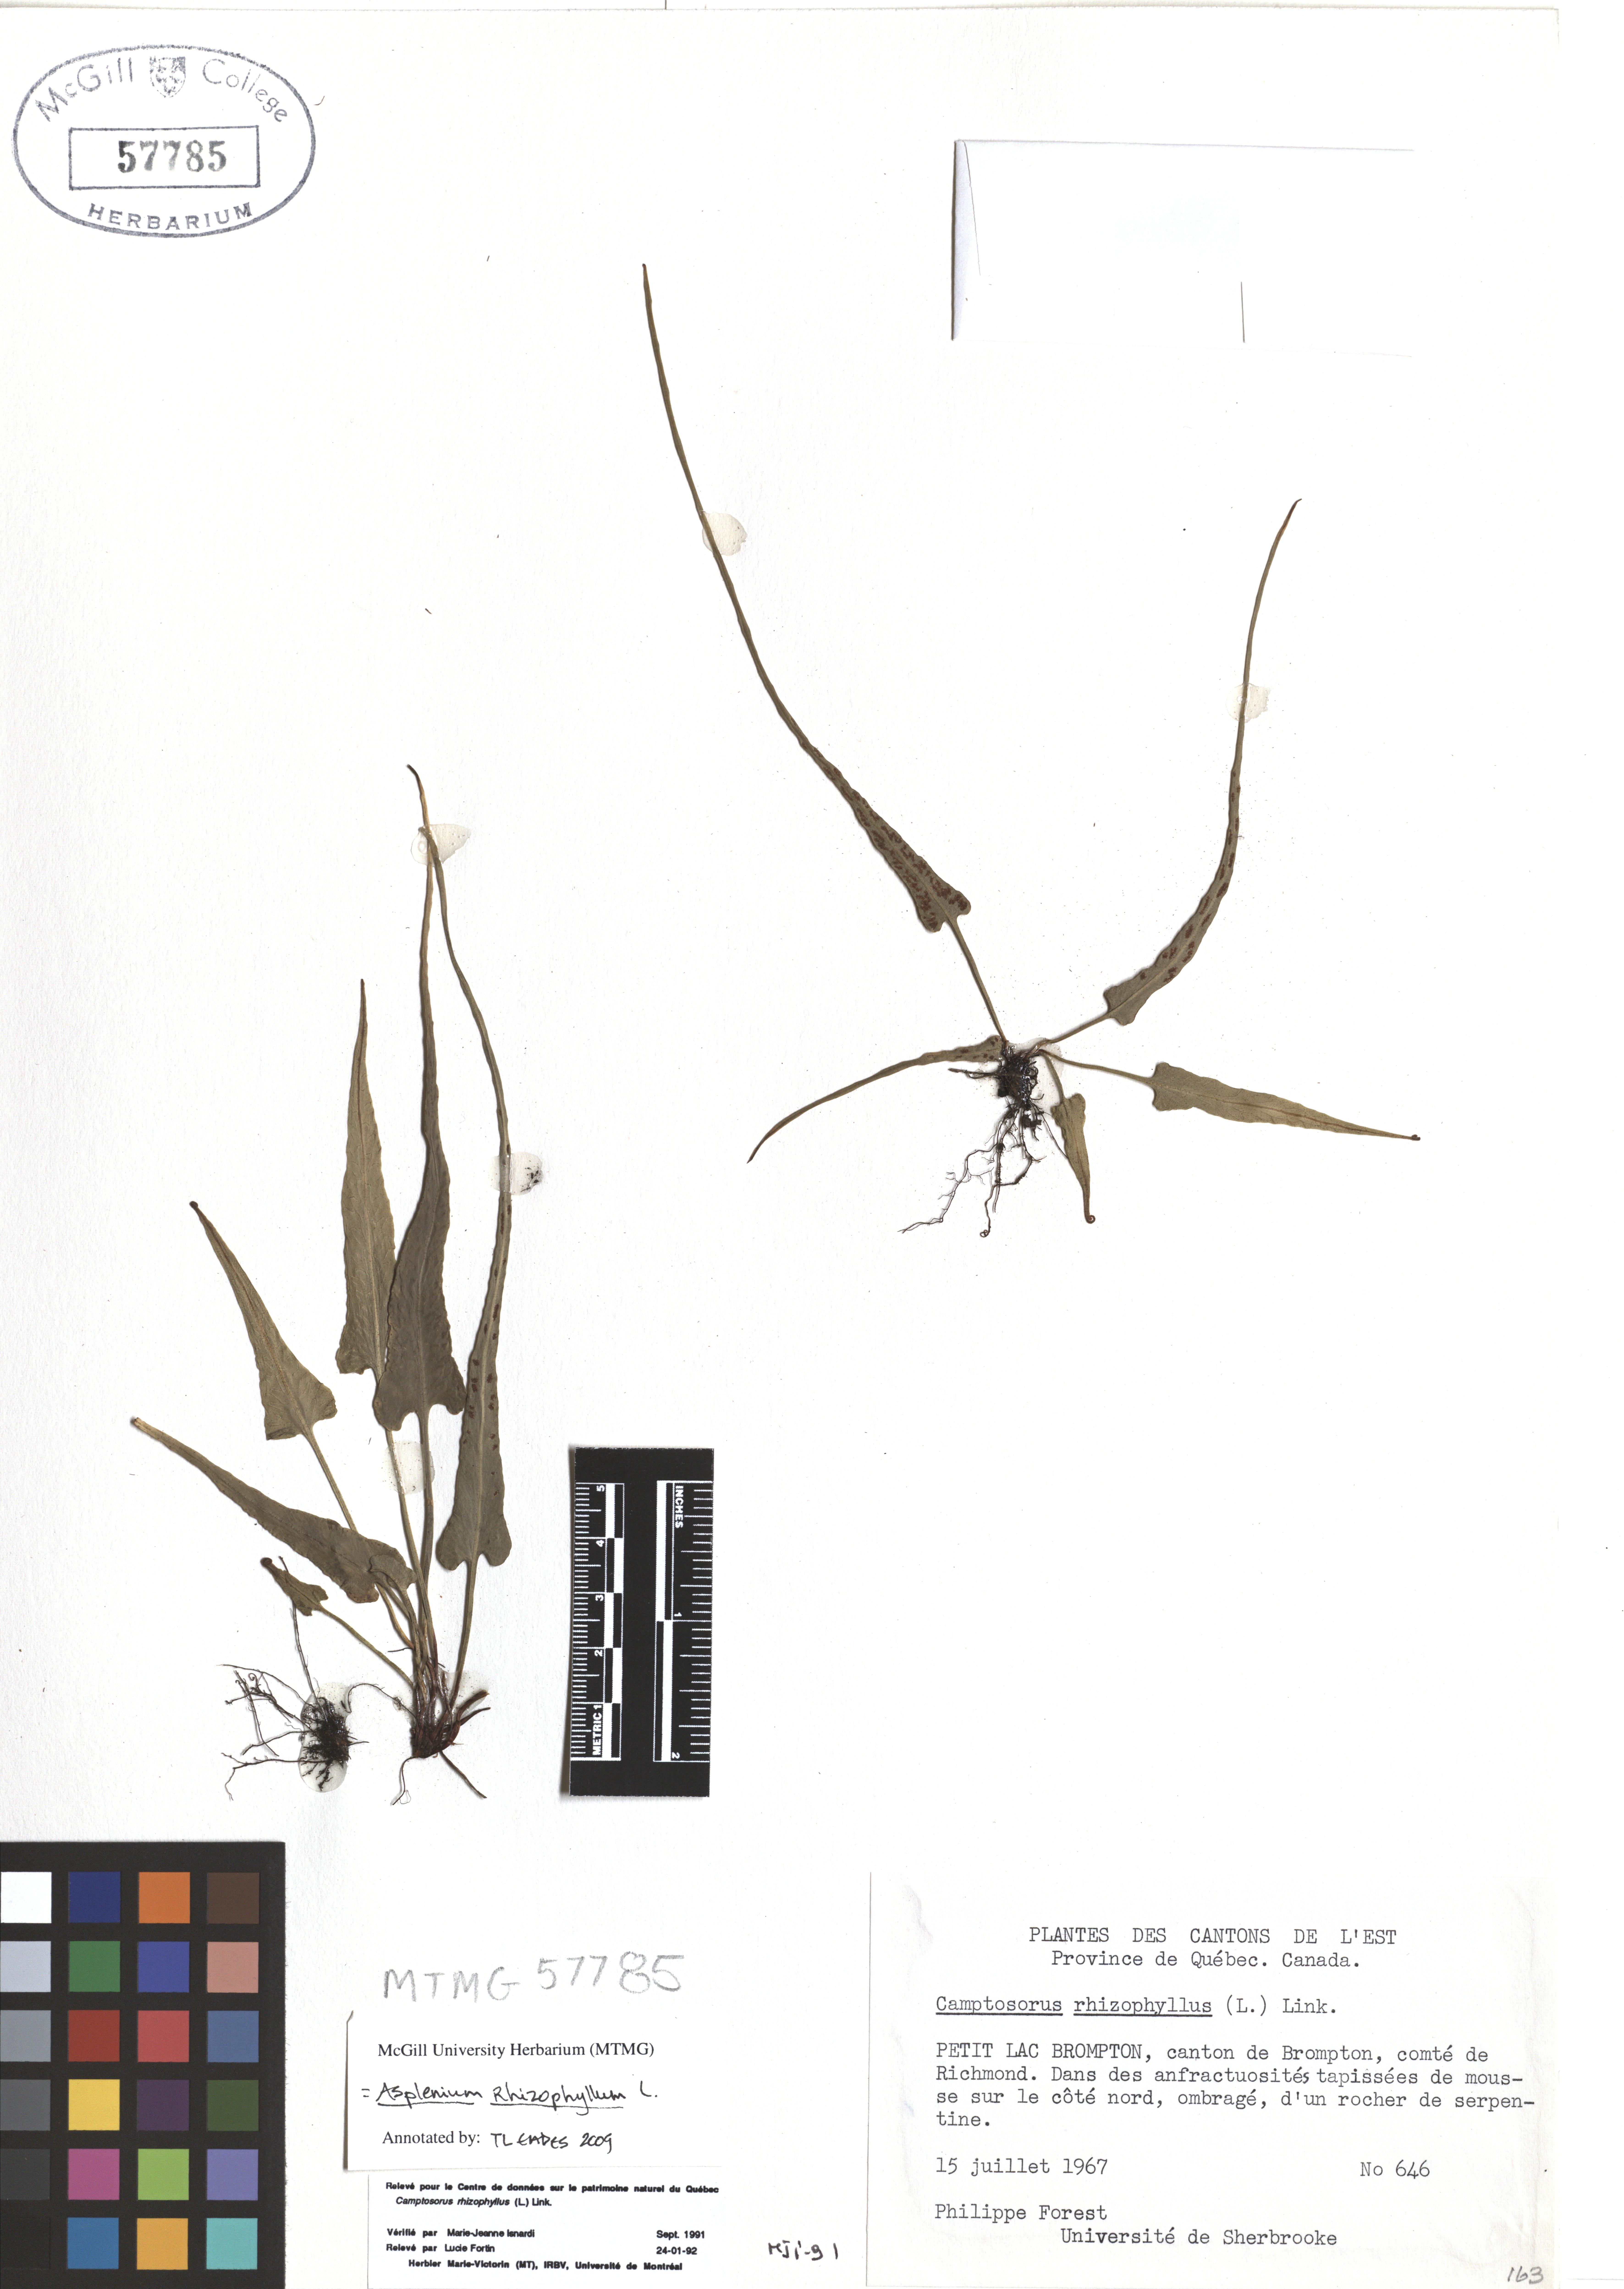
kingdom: Plantae
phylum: Tracheophyta
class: Polypodiopsida
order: Polypodiales
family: Aspleniaceae
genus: Asplenium
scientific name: Asplenium radicans
